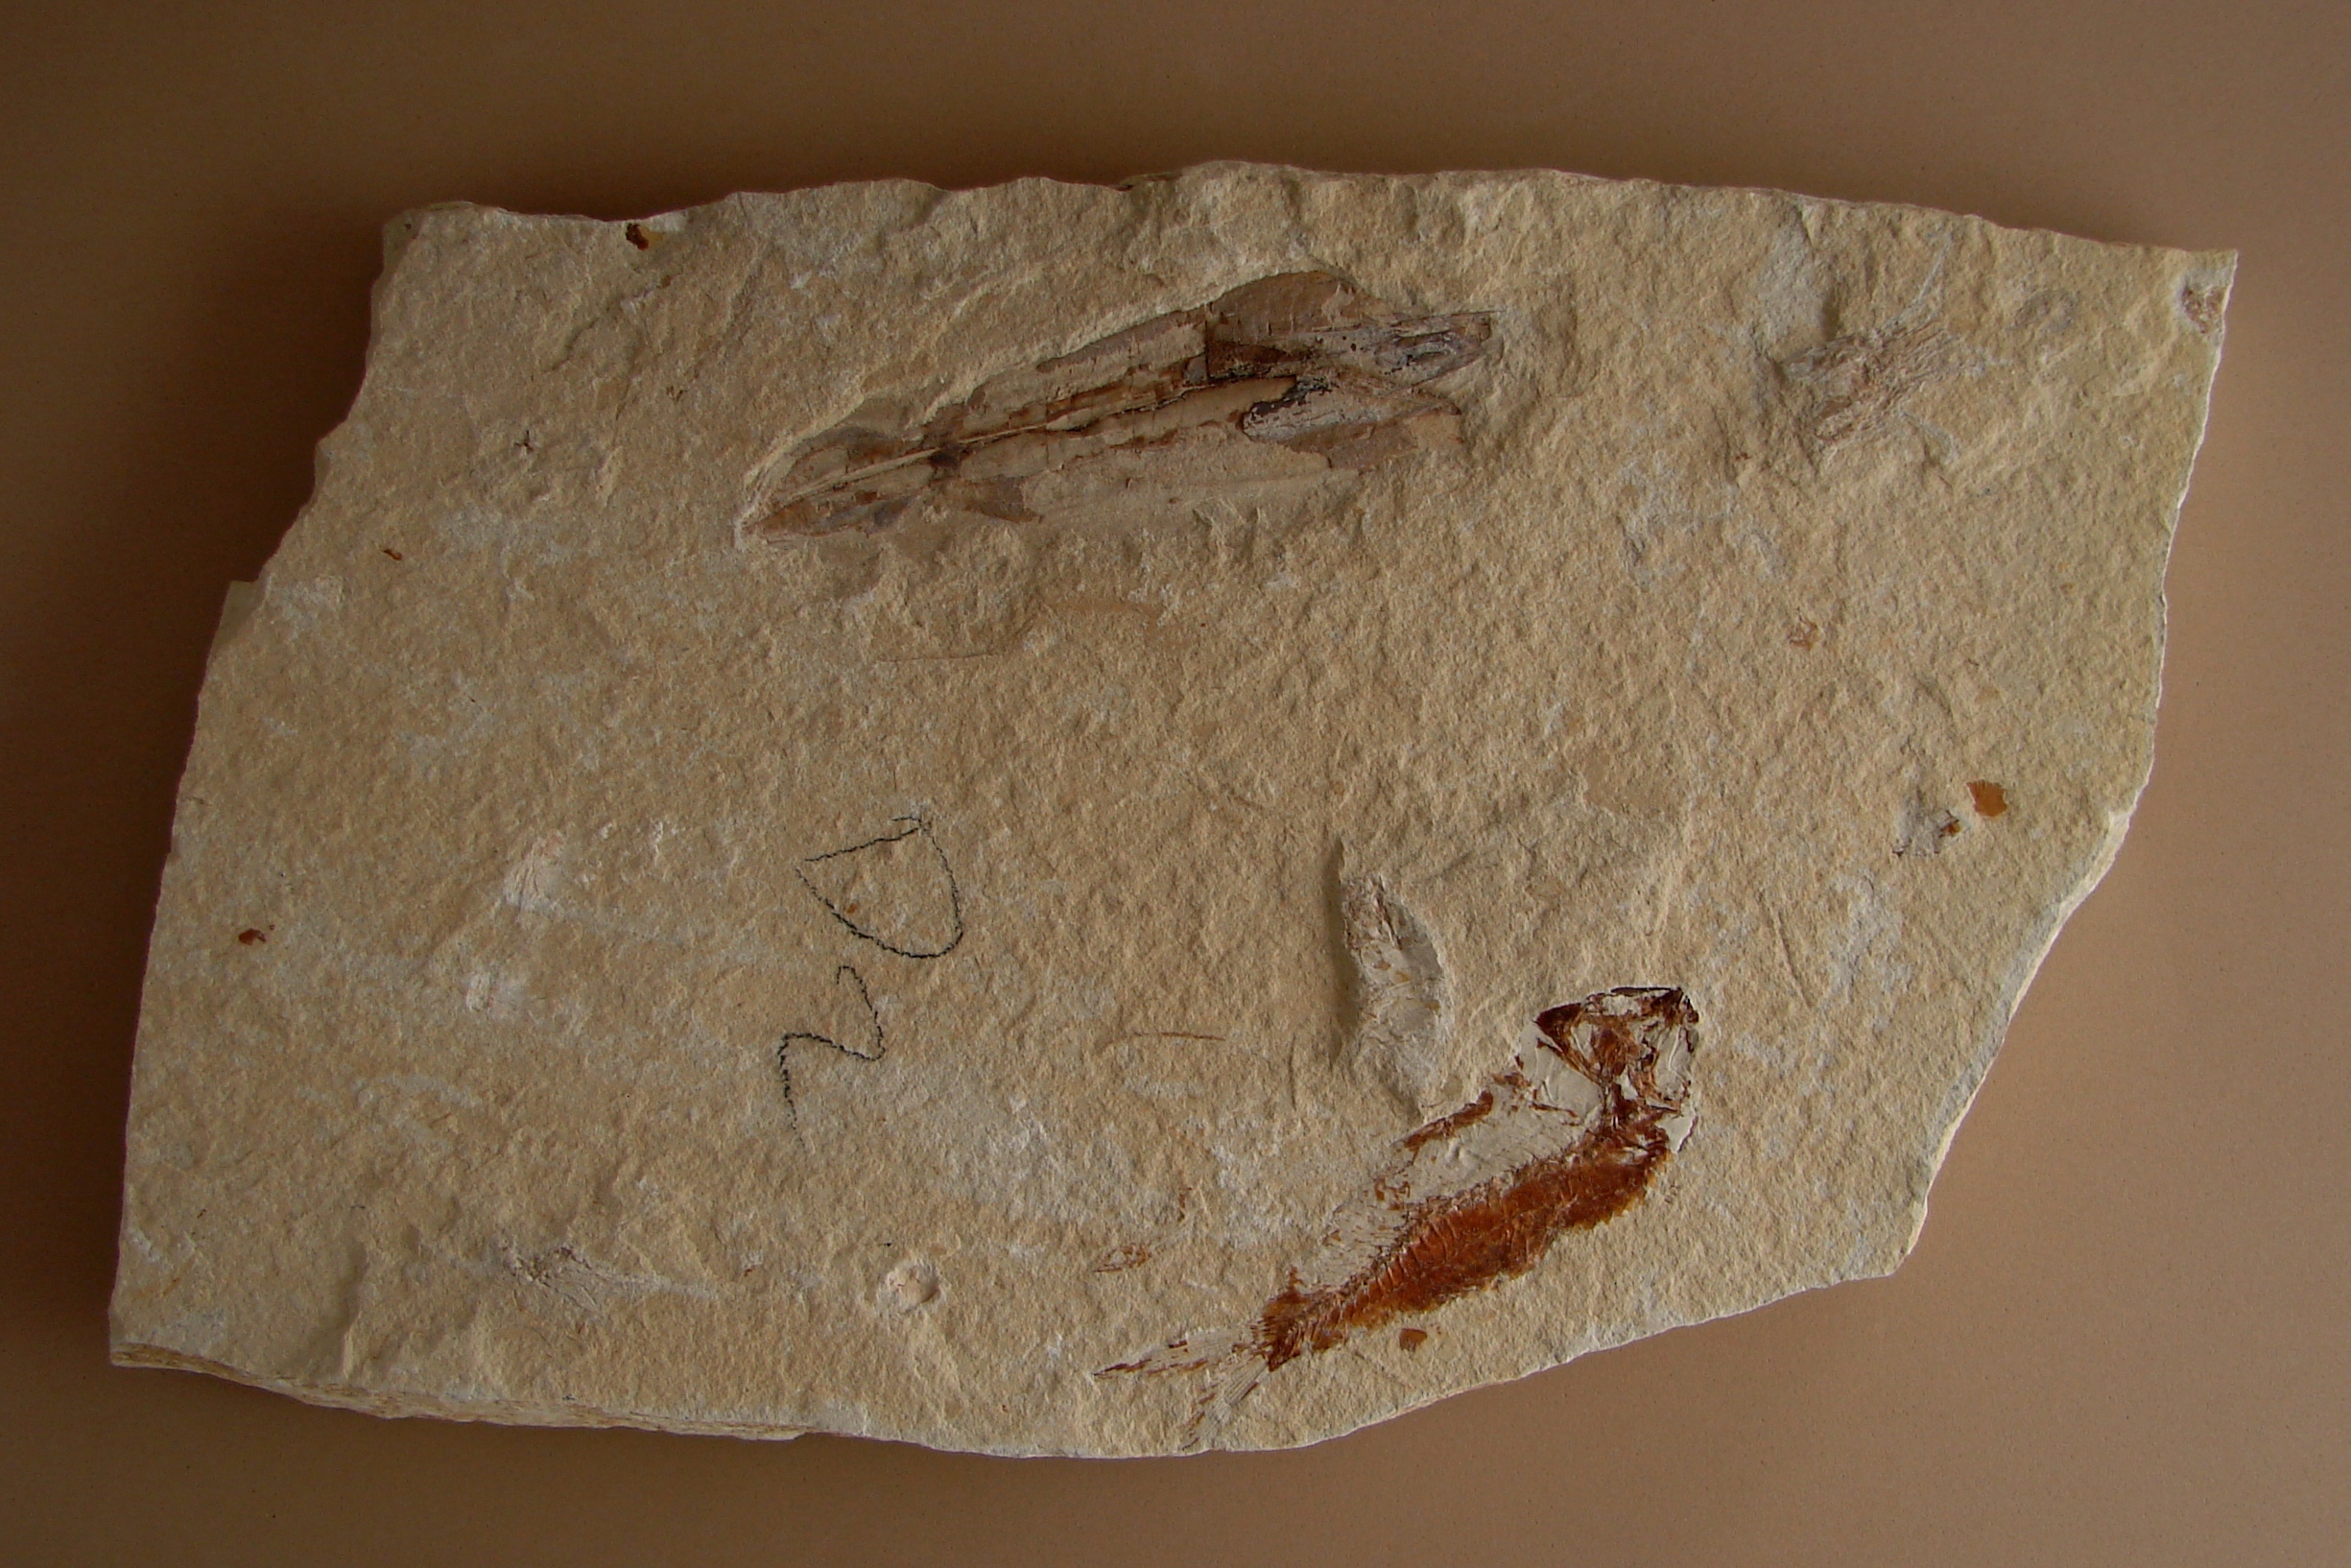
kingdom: Animalia
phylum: Mollusca
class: Cephalopoda
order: Octopoda
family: Palaeololiginidae
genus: Rachiteuthis
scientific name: Rachiteuthis donovani
